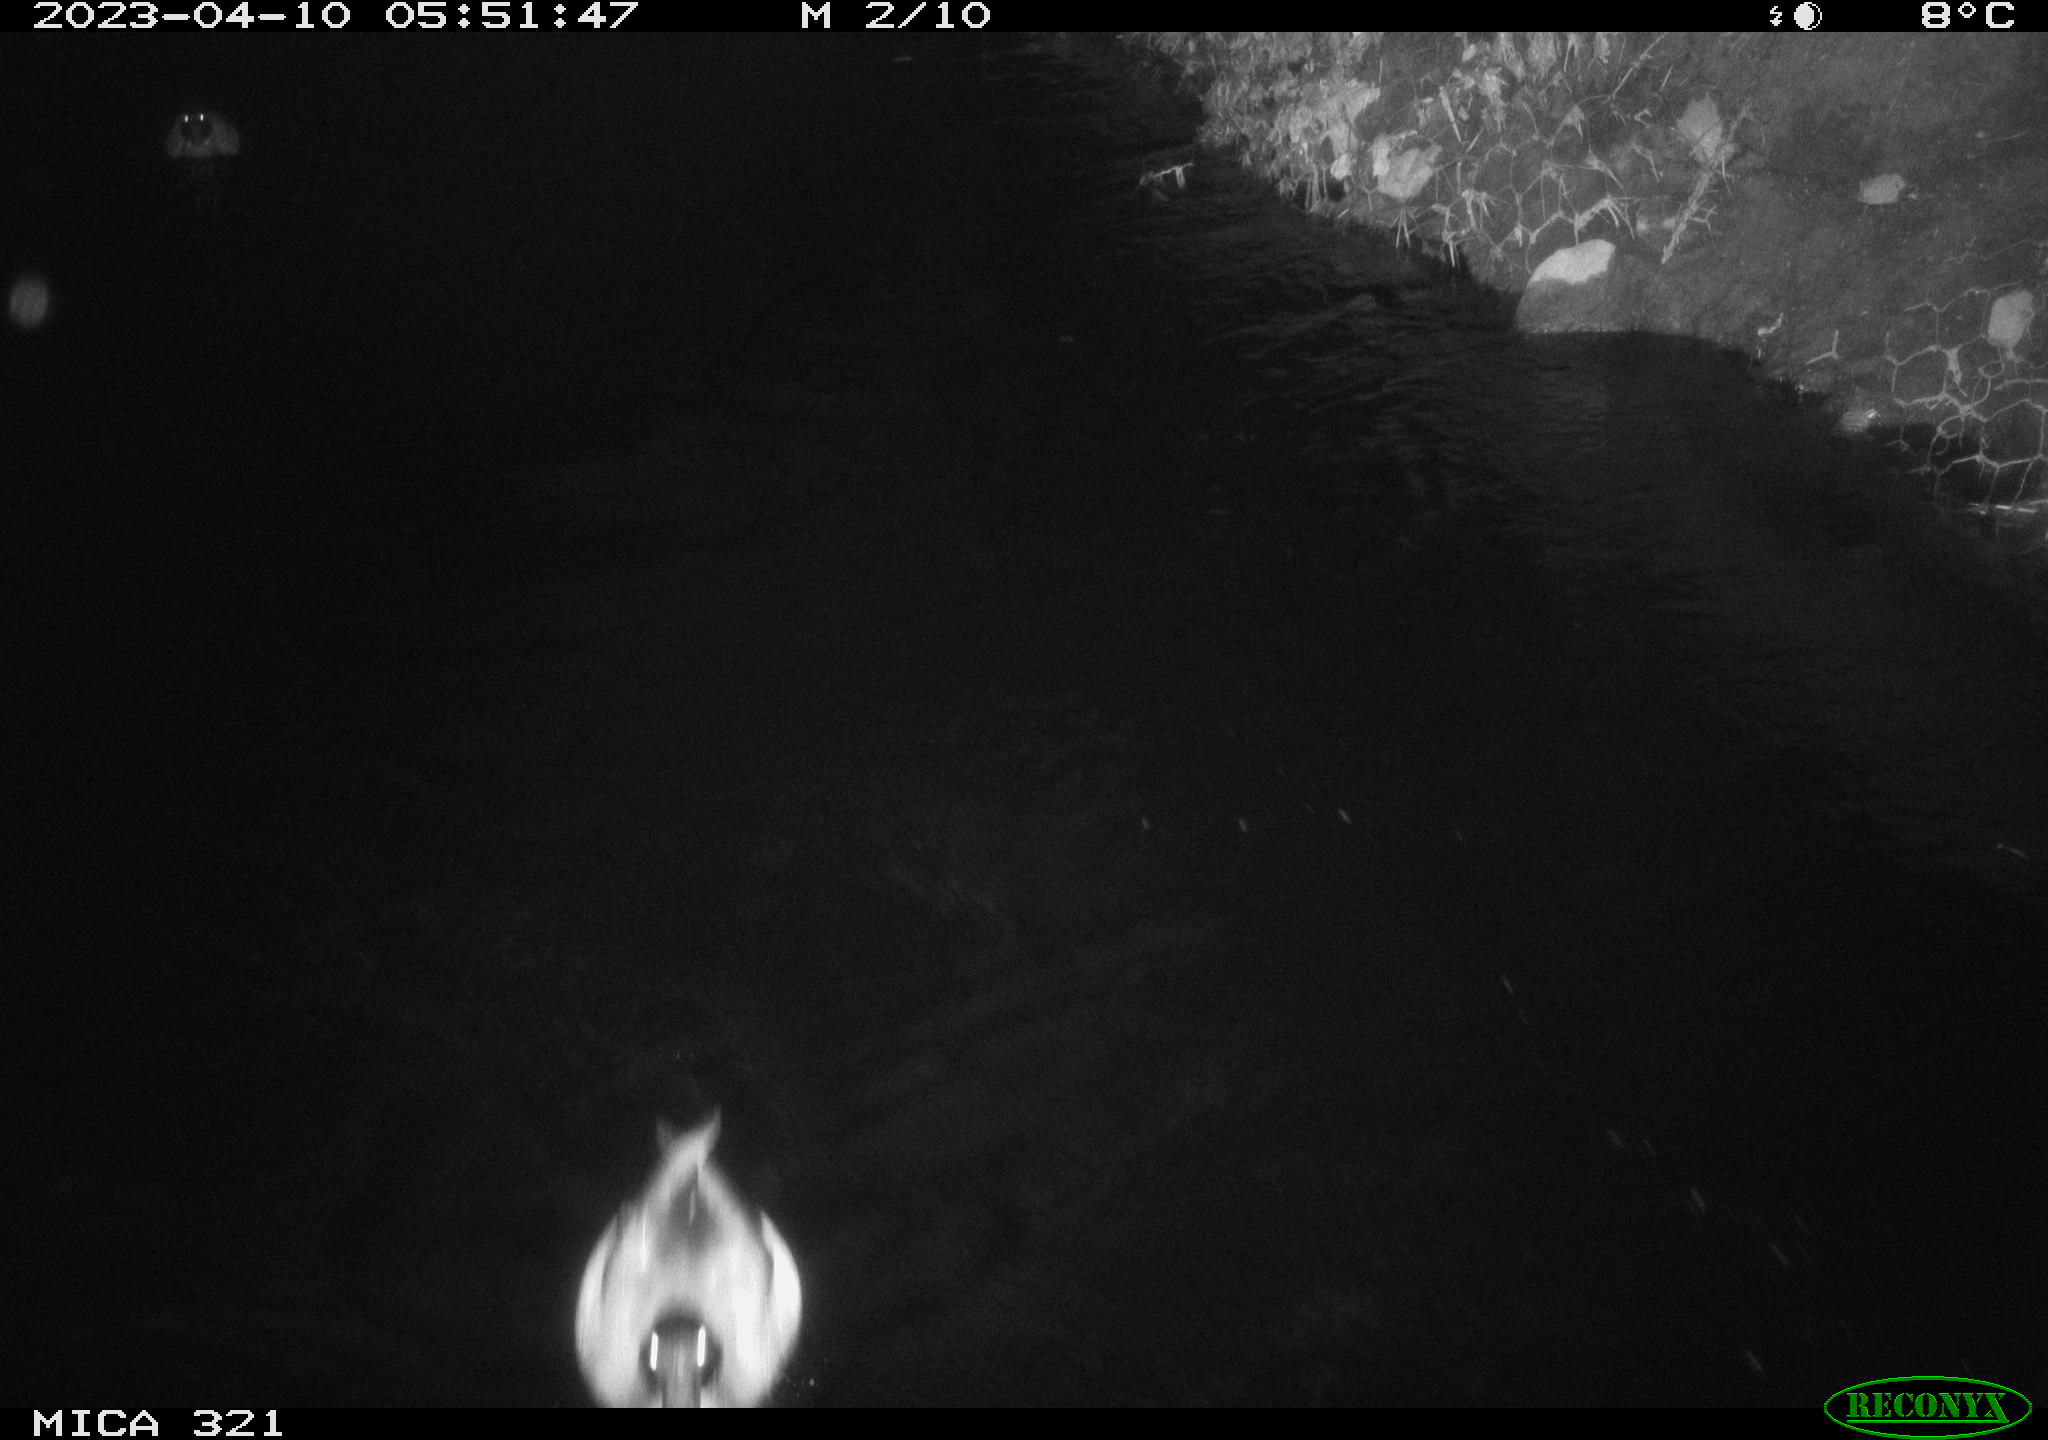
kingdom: Animalia
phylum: Chordata
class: Aves
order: Anseriformes
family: Anatidae
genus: Anas
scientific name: Anas
